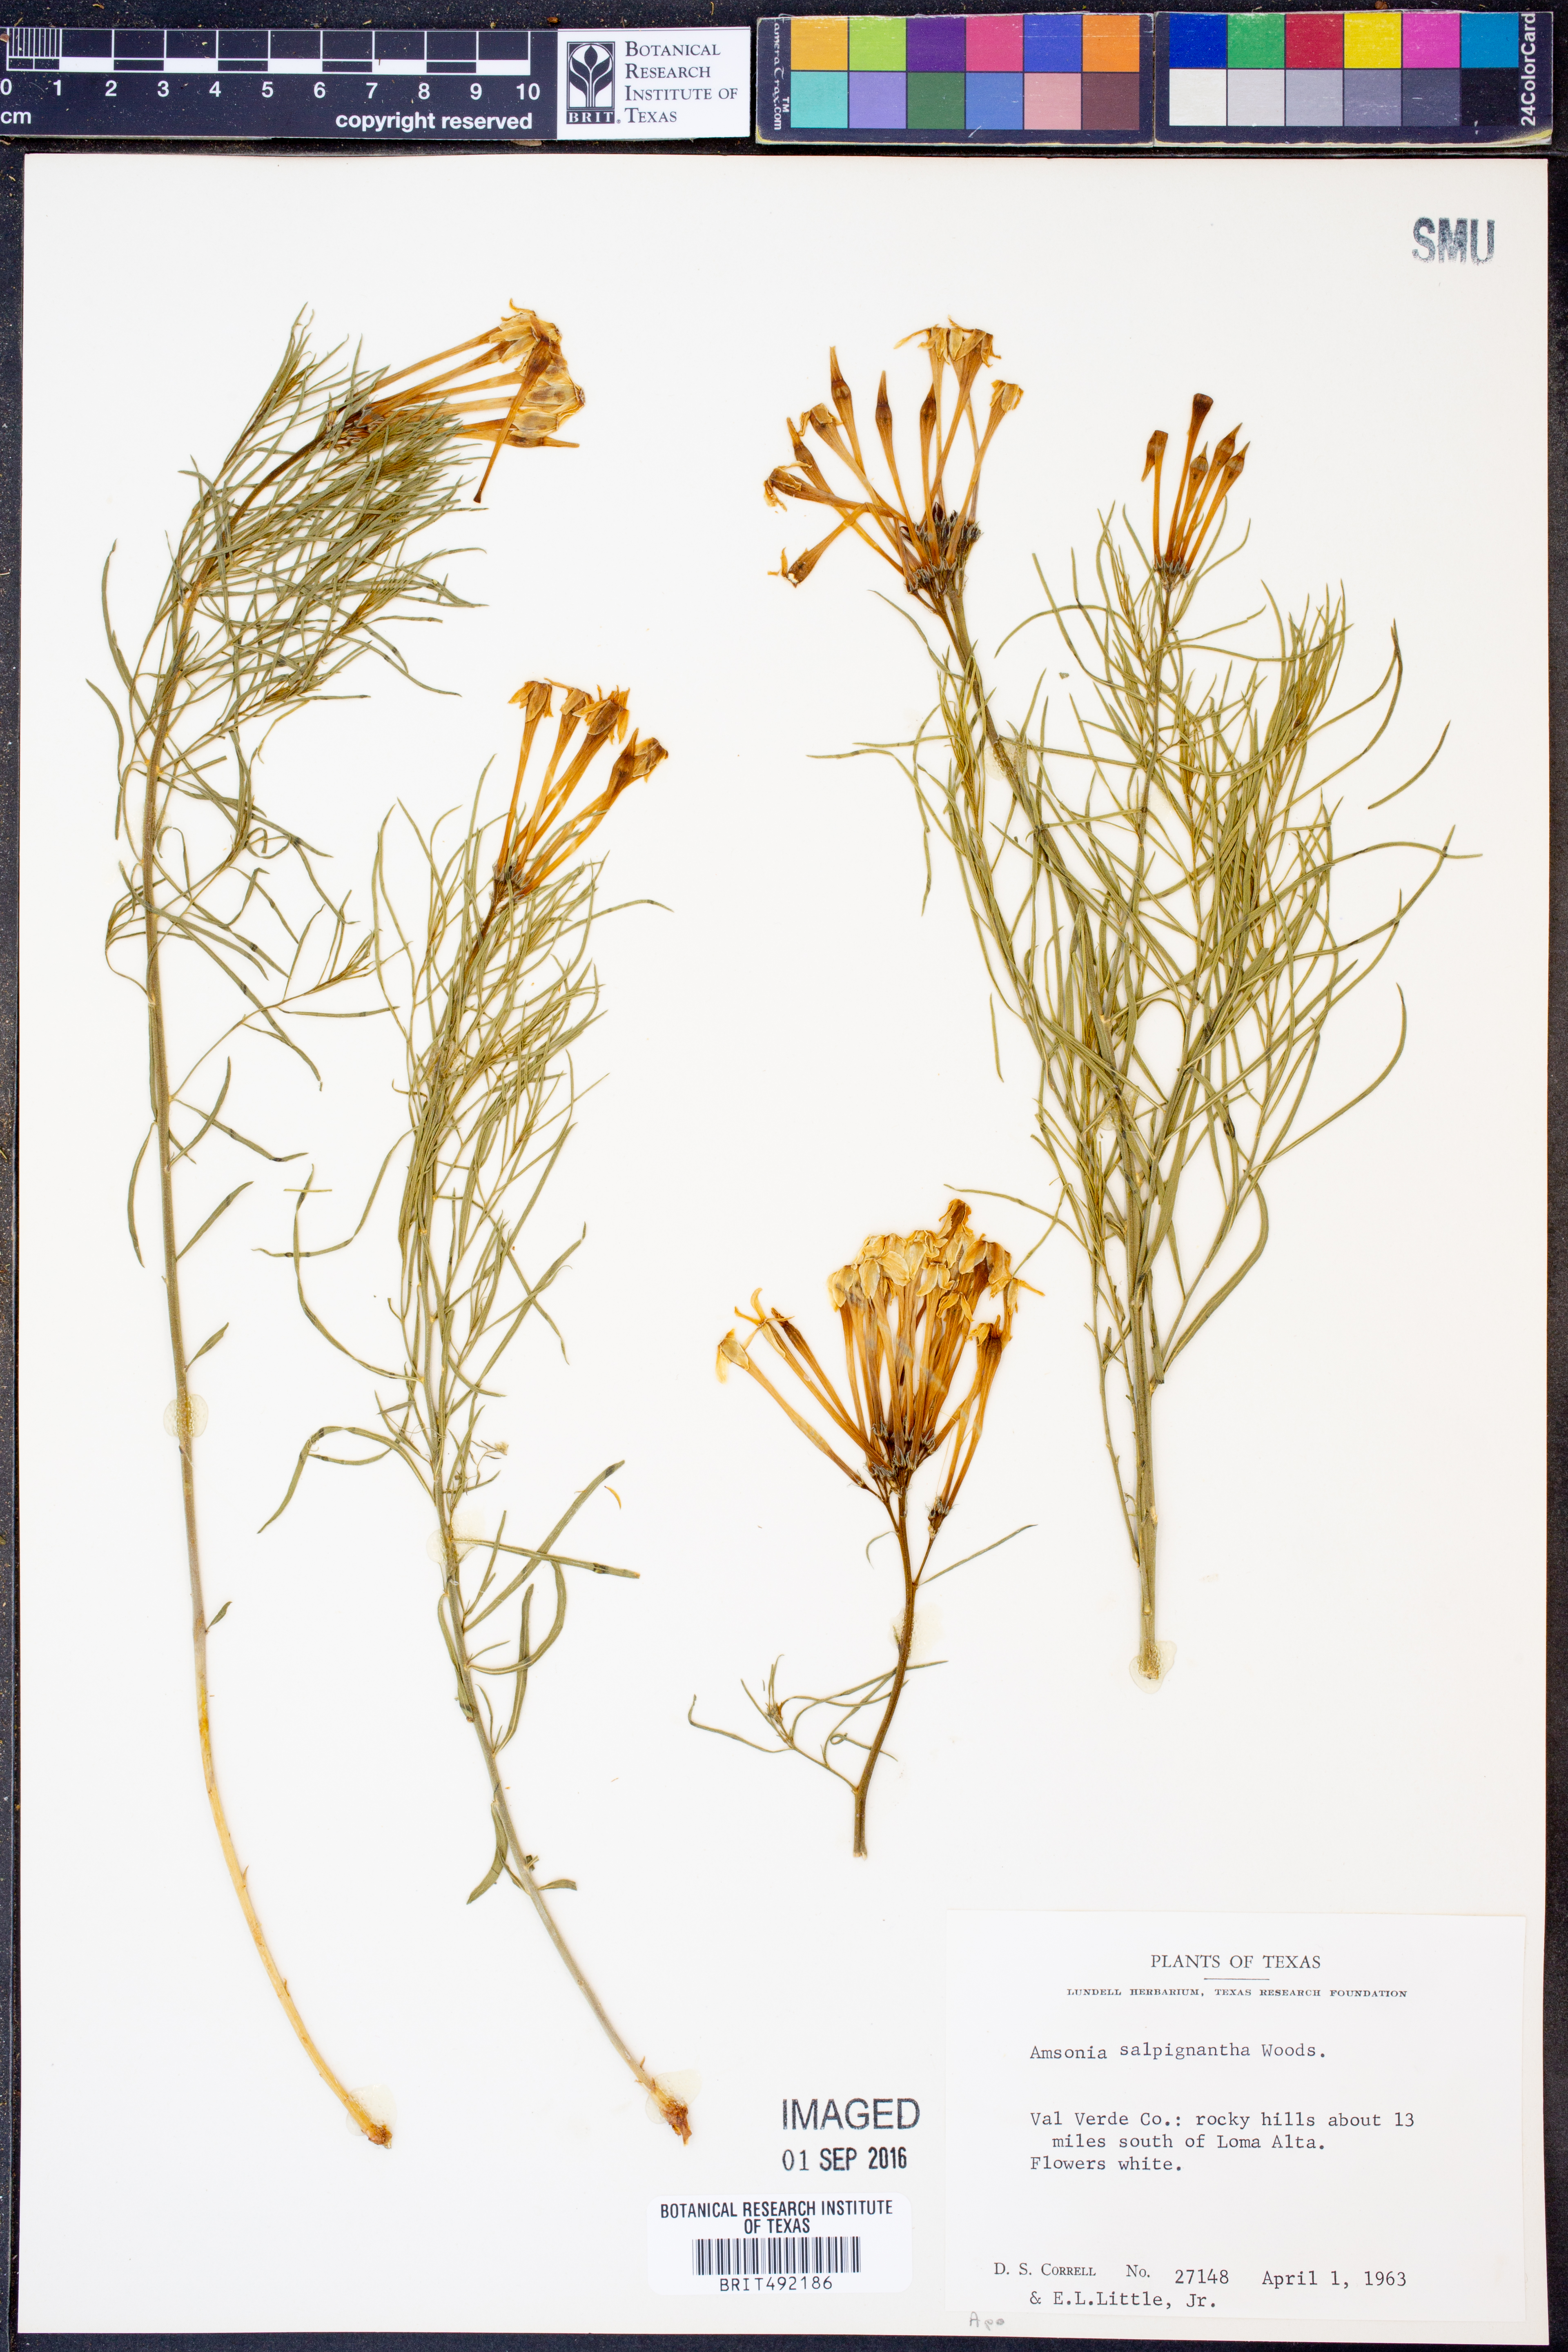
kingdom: Plantae
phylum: Tracheophyta
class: Magnoliopsida
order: Gentianales
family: Apocynaceae
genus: Amsonia
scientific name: Amsonia longiflora
